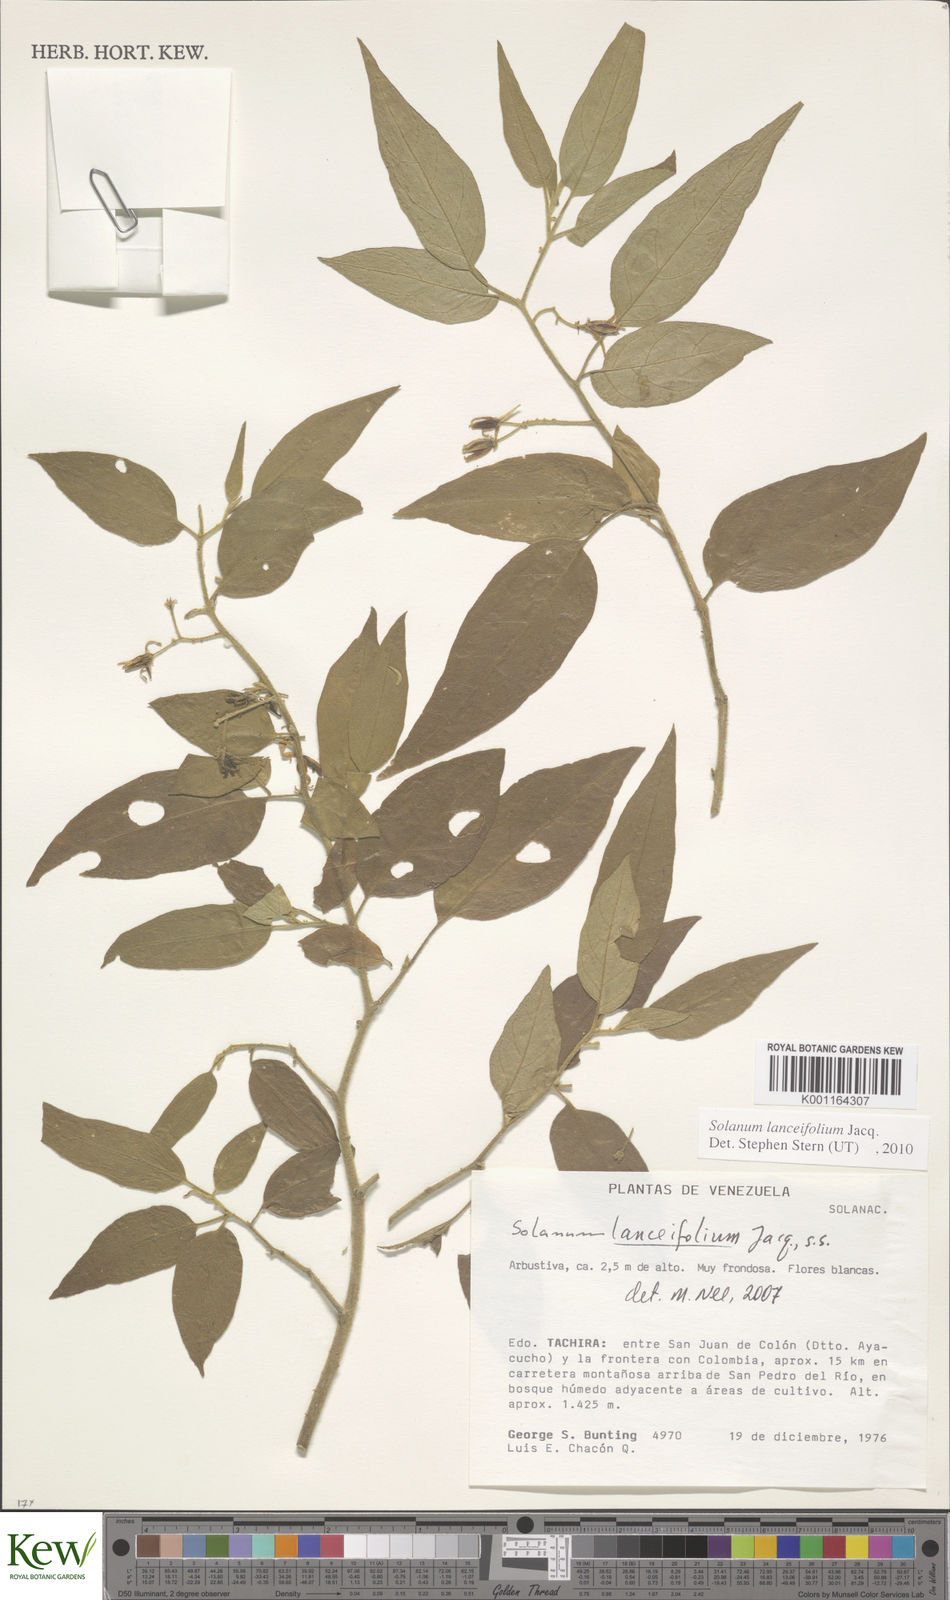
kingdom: Plantae
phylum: Tracheophyta
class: Magnoliopsida
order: Solanales
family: Solanaceae
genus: Solanum
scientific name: Solanum lanceifolium
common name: Lanceleaf nightshade
